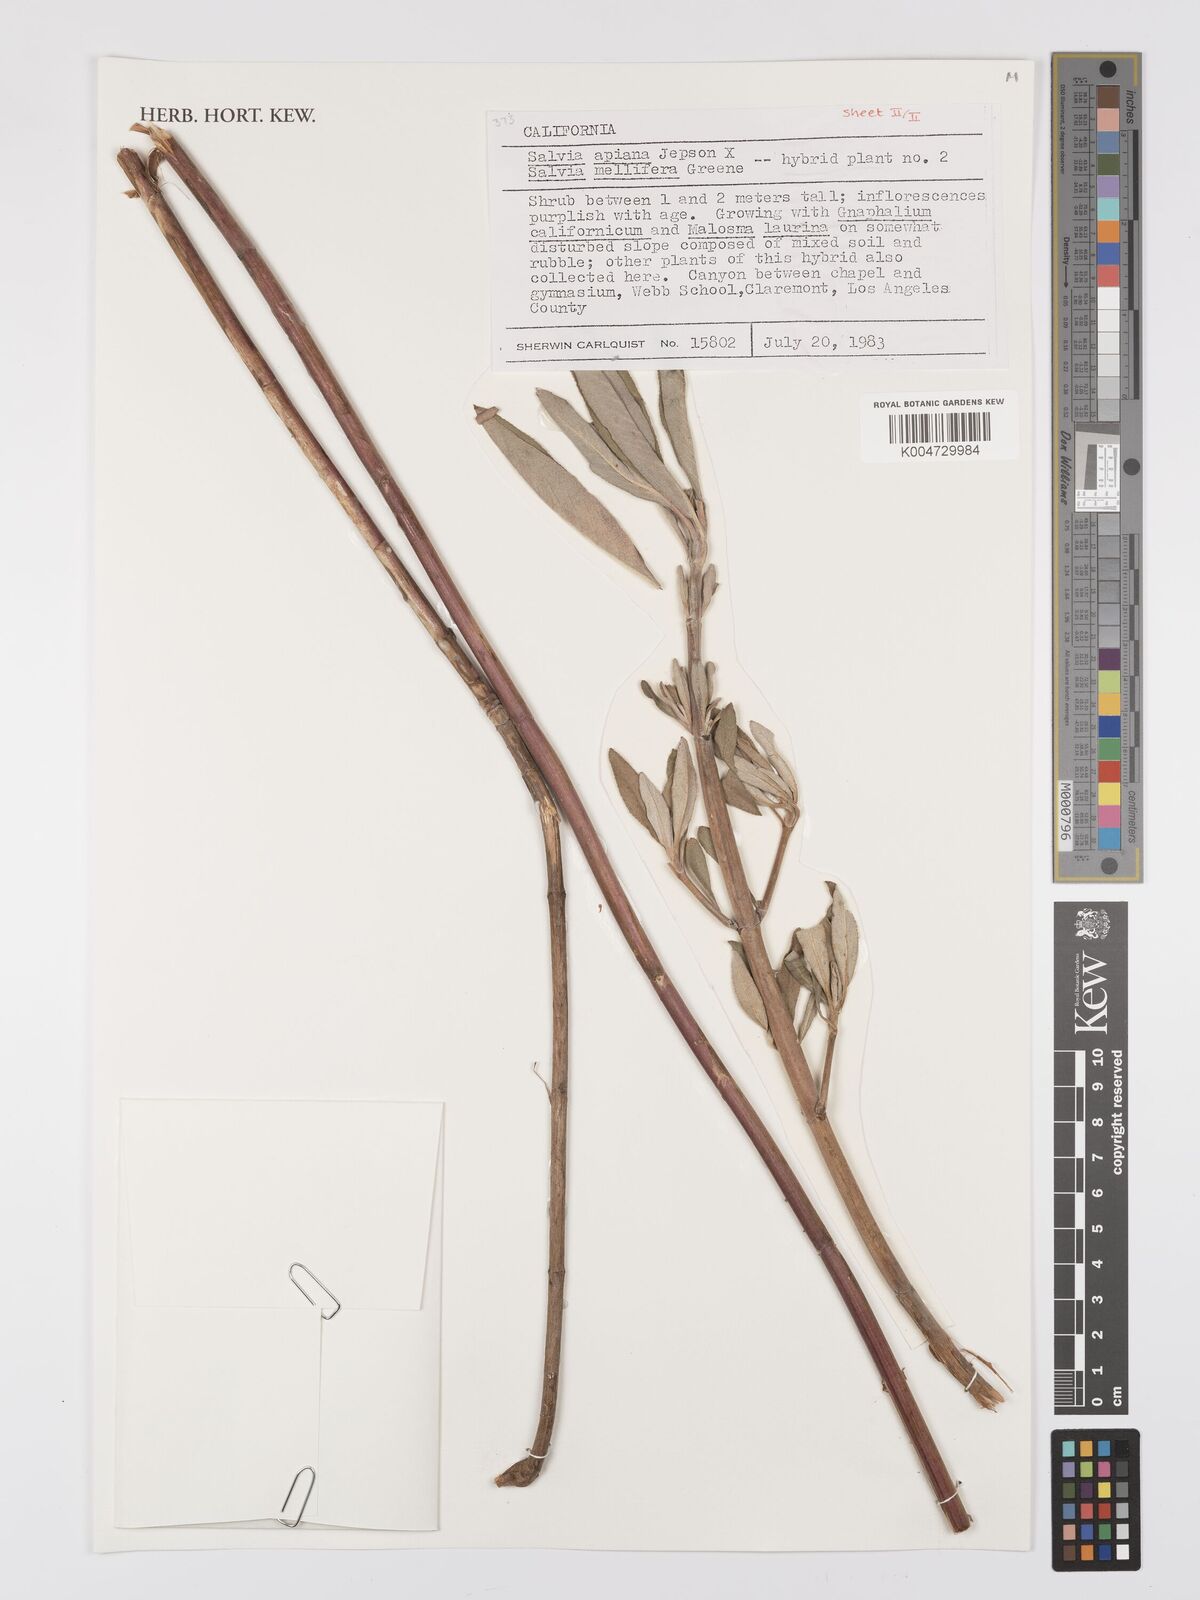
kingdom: Plantae
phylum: Tracheophyta
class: Magnoliopsida
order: Lamiales
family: Lamiaceae
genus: Salvia
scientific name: Salvia apiana
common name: White sage
